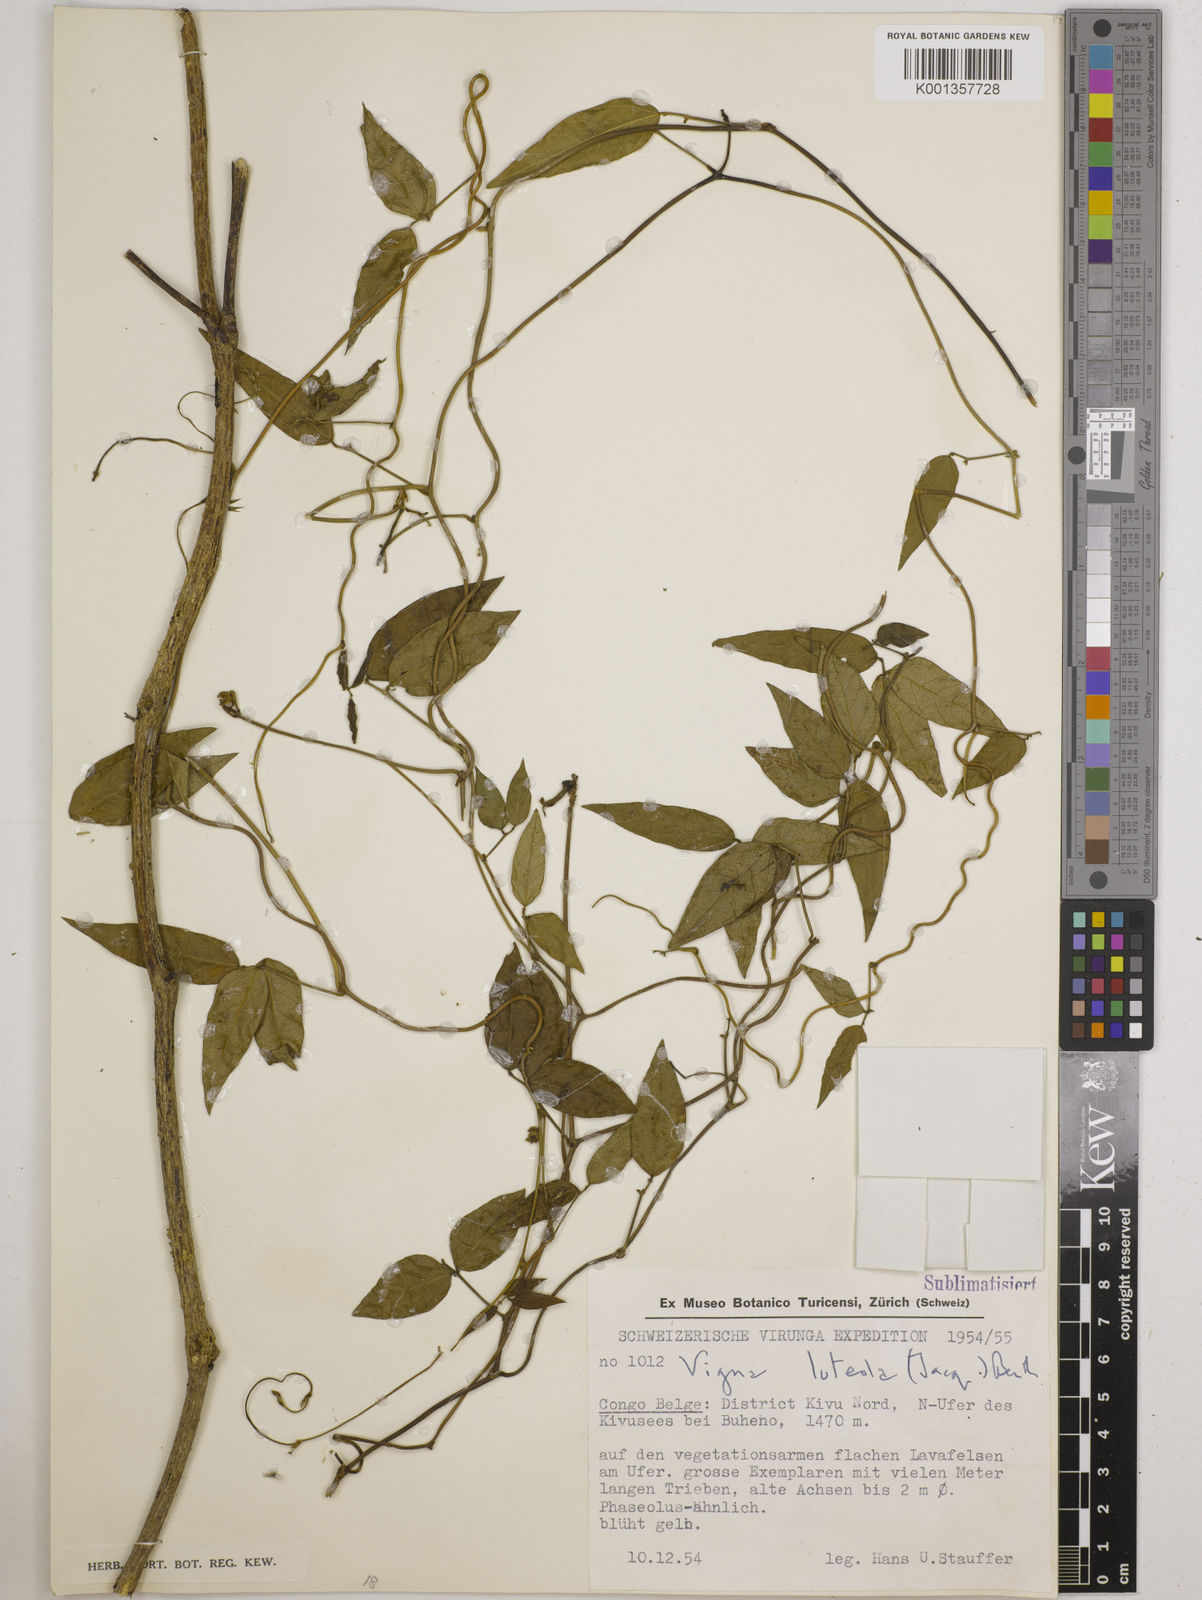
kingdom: Plantae
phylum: Tracheophyta
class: Magnoliopsida
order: Fabales
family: Fabaceae
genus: Vigna
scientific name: Vigna luteola
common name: Hairypod cowpea
